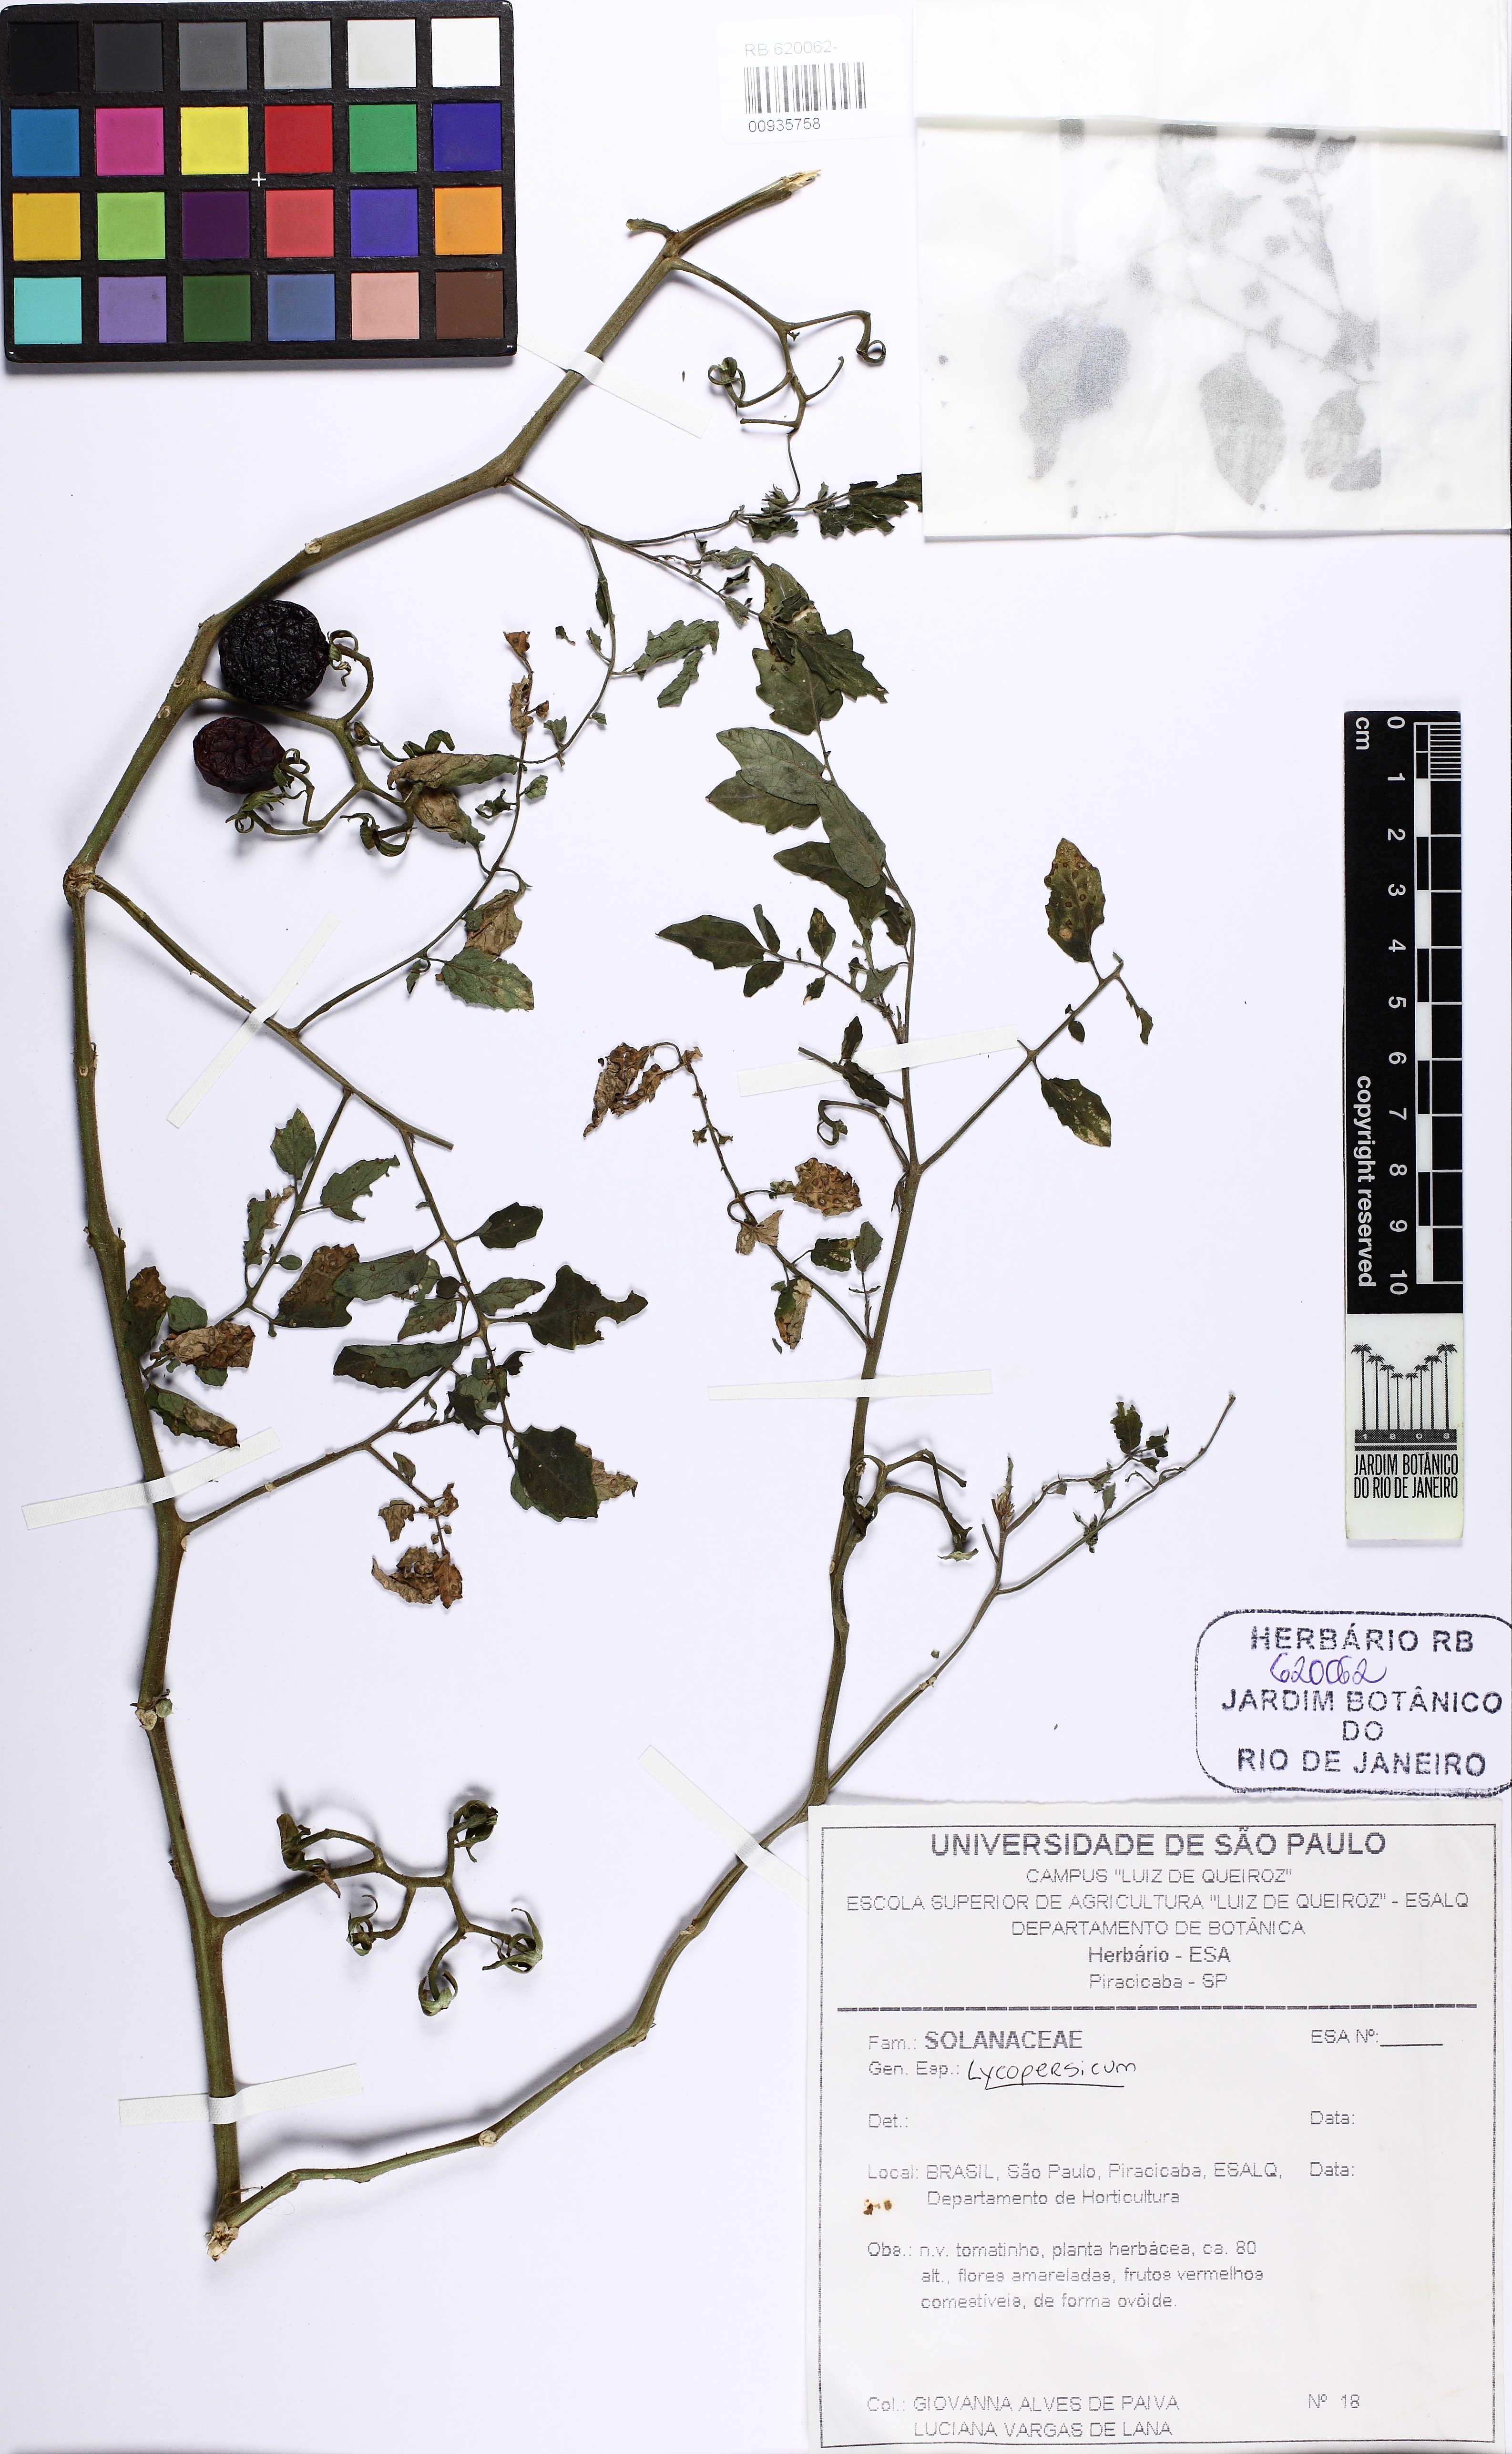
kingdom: Plantae
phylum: Tracheophyta
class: Magnoliopsida
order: Solanales
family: Solanaceae
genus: Lycopersicon
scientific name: Lycopersicon
